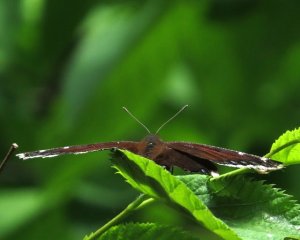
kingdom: Animalia
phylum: Arthropoda
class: Insecta
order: Lepidoptera
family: Nymphalidae
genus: Nymphalis
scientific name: Nymphalis antiopa
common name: Mourning Cloak
